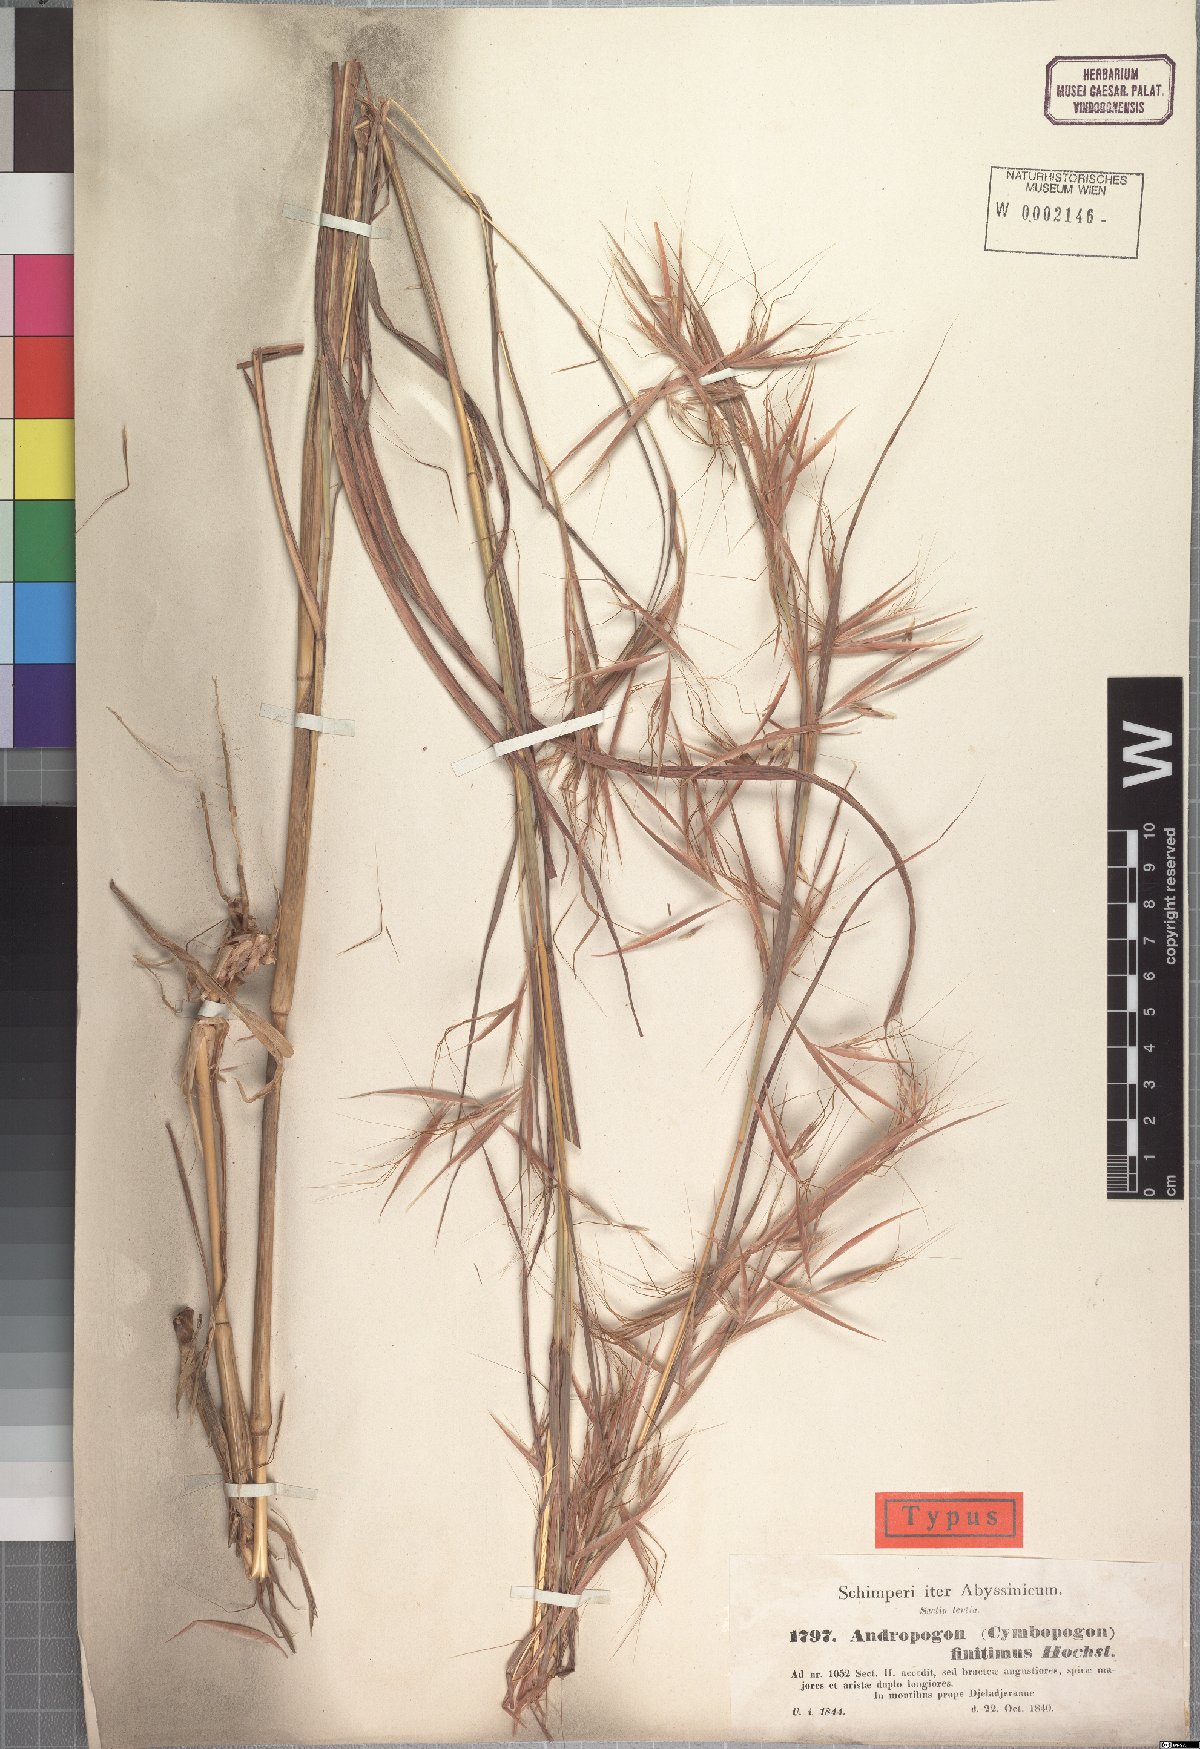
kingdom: Plantae
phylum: Tracheophyta
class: Liliopsida
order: Poales
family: Poaceae
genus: Hyparrhenia
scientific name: Hyparrhenia finitima
